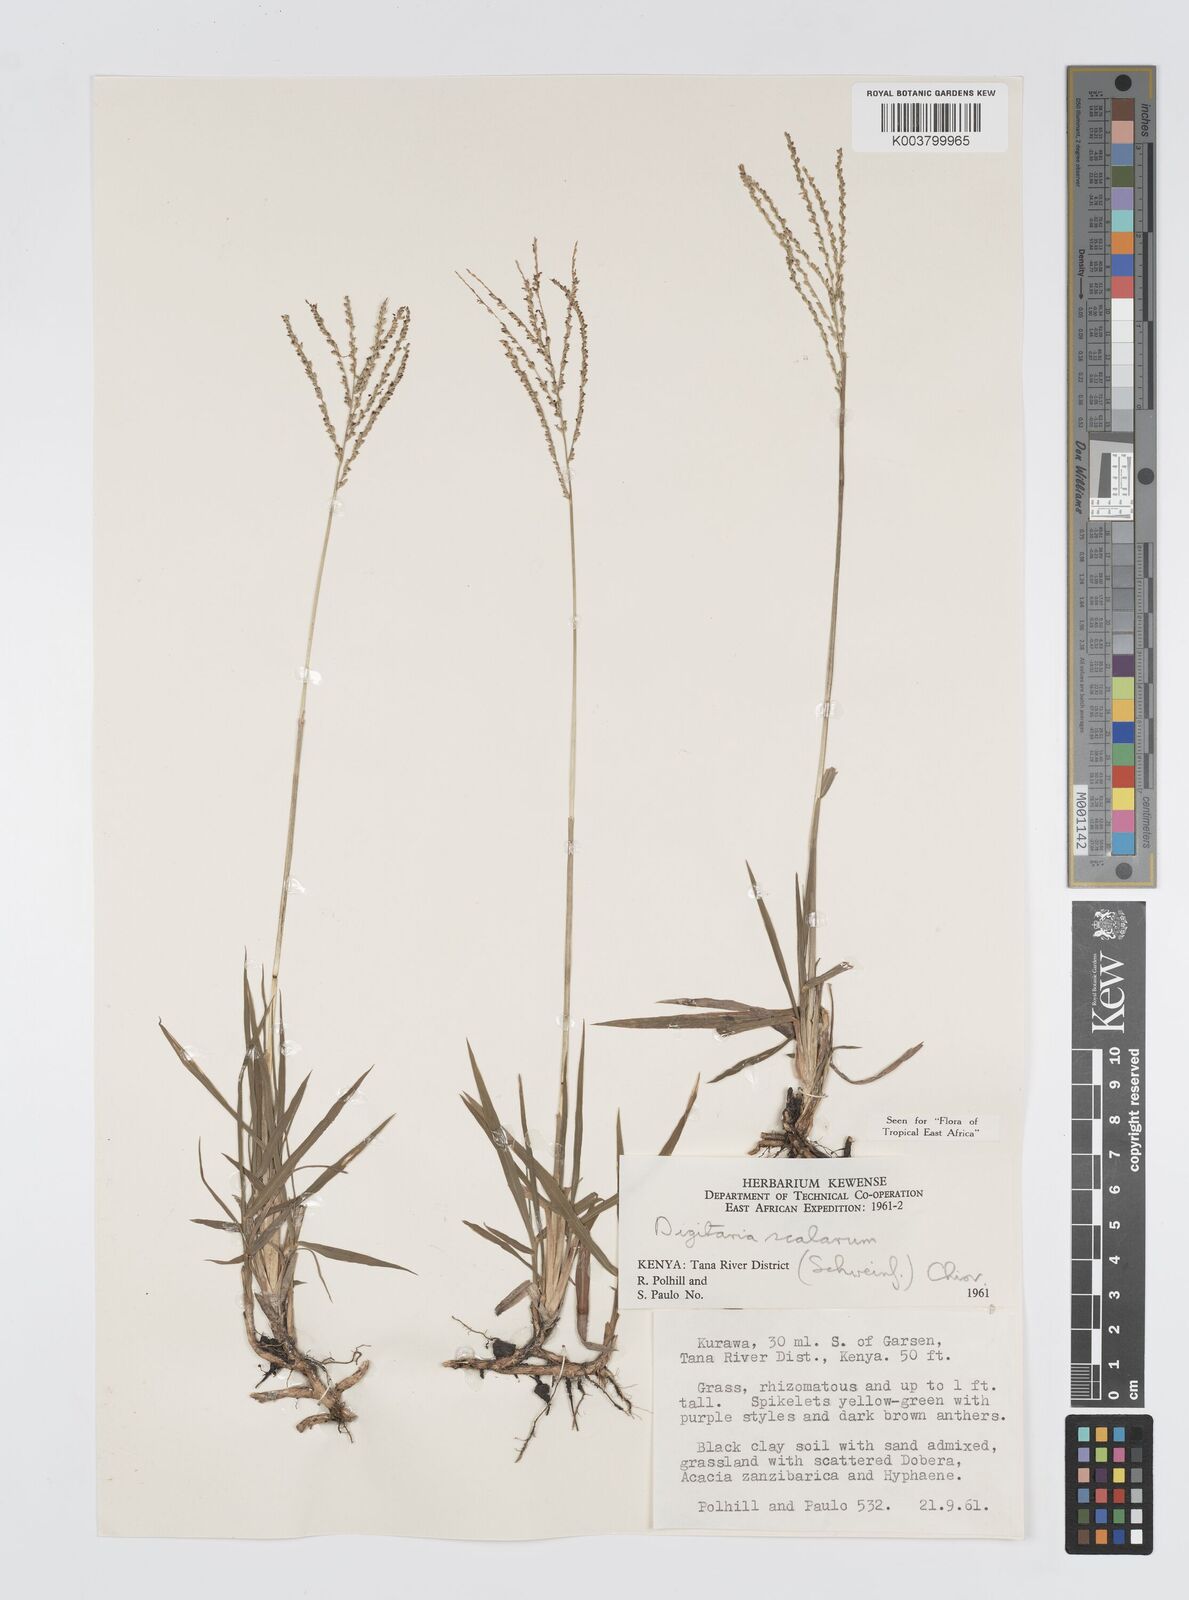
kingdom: Plantae
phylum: Tracheophyta
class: Liliopsida
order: Poales
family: Poaceae
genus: Digitaria
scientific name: Digitaria abyssinica
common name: African couchgrass
